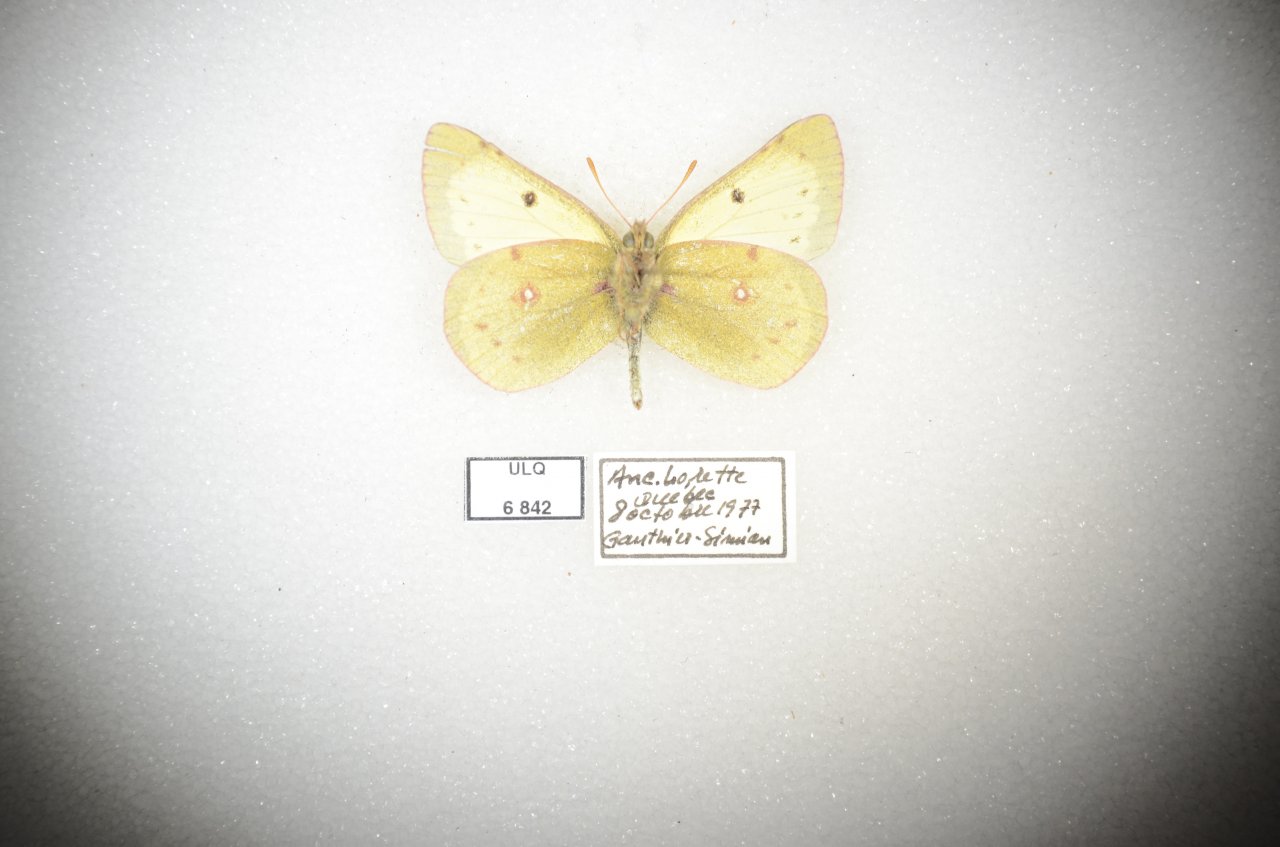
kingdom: Animalia
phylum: Arthropoda
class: Insecta
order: Lepidoptera
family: Pieridae
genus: Colias
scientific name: Colias philodice
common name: Clouded Sulphur
